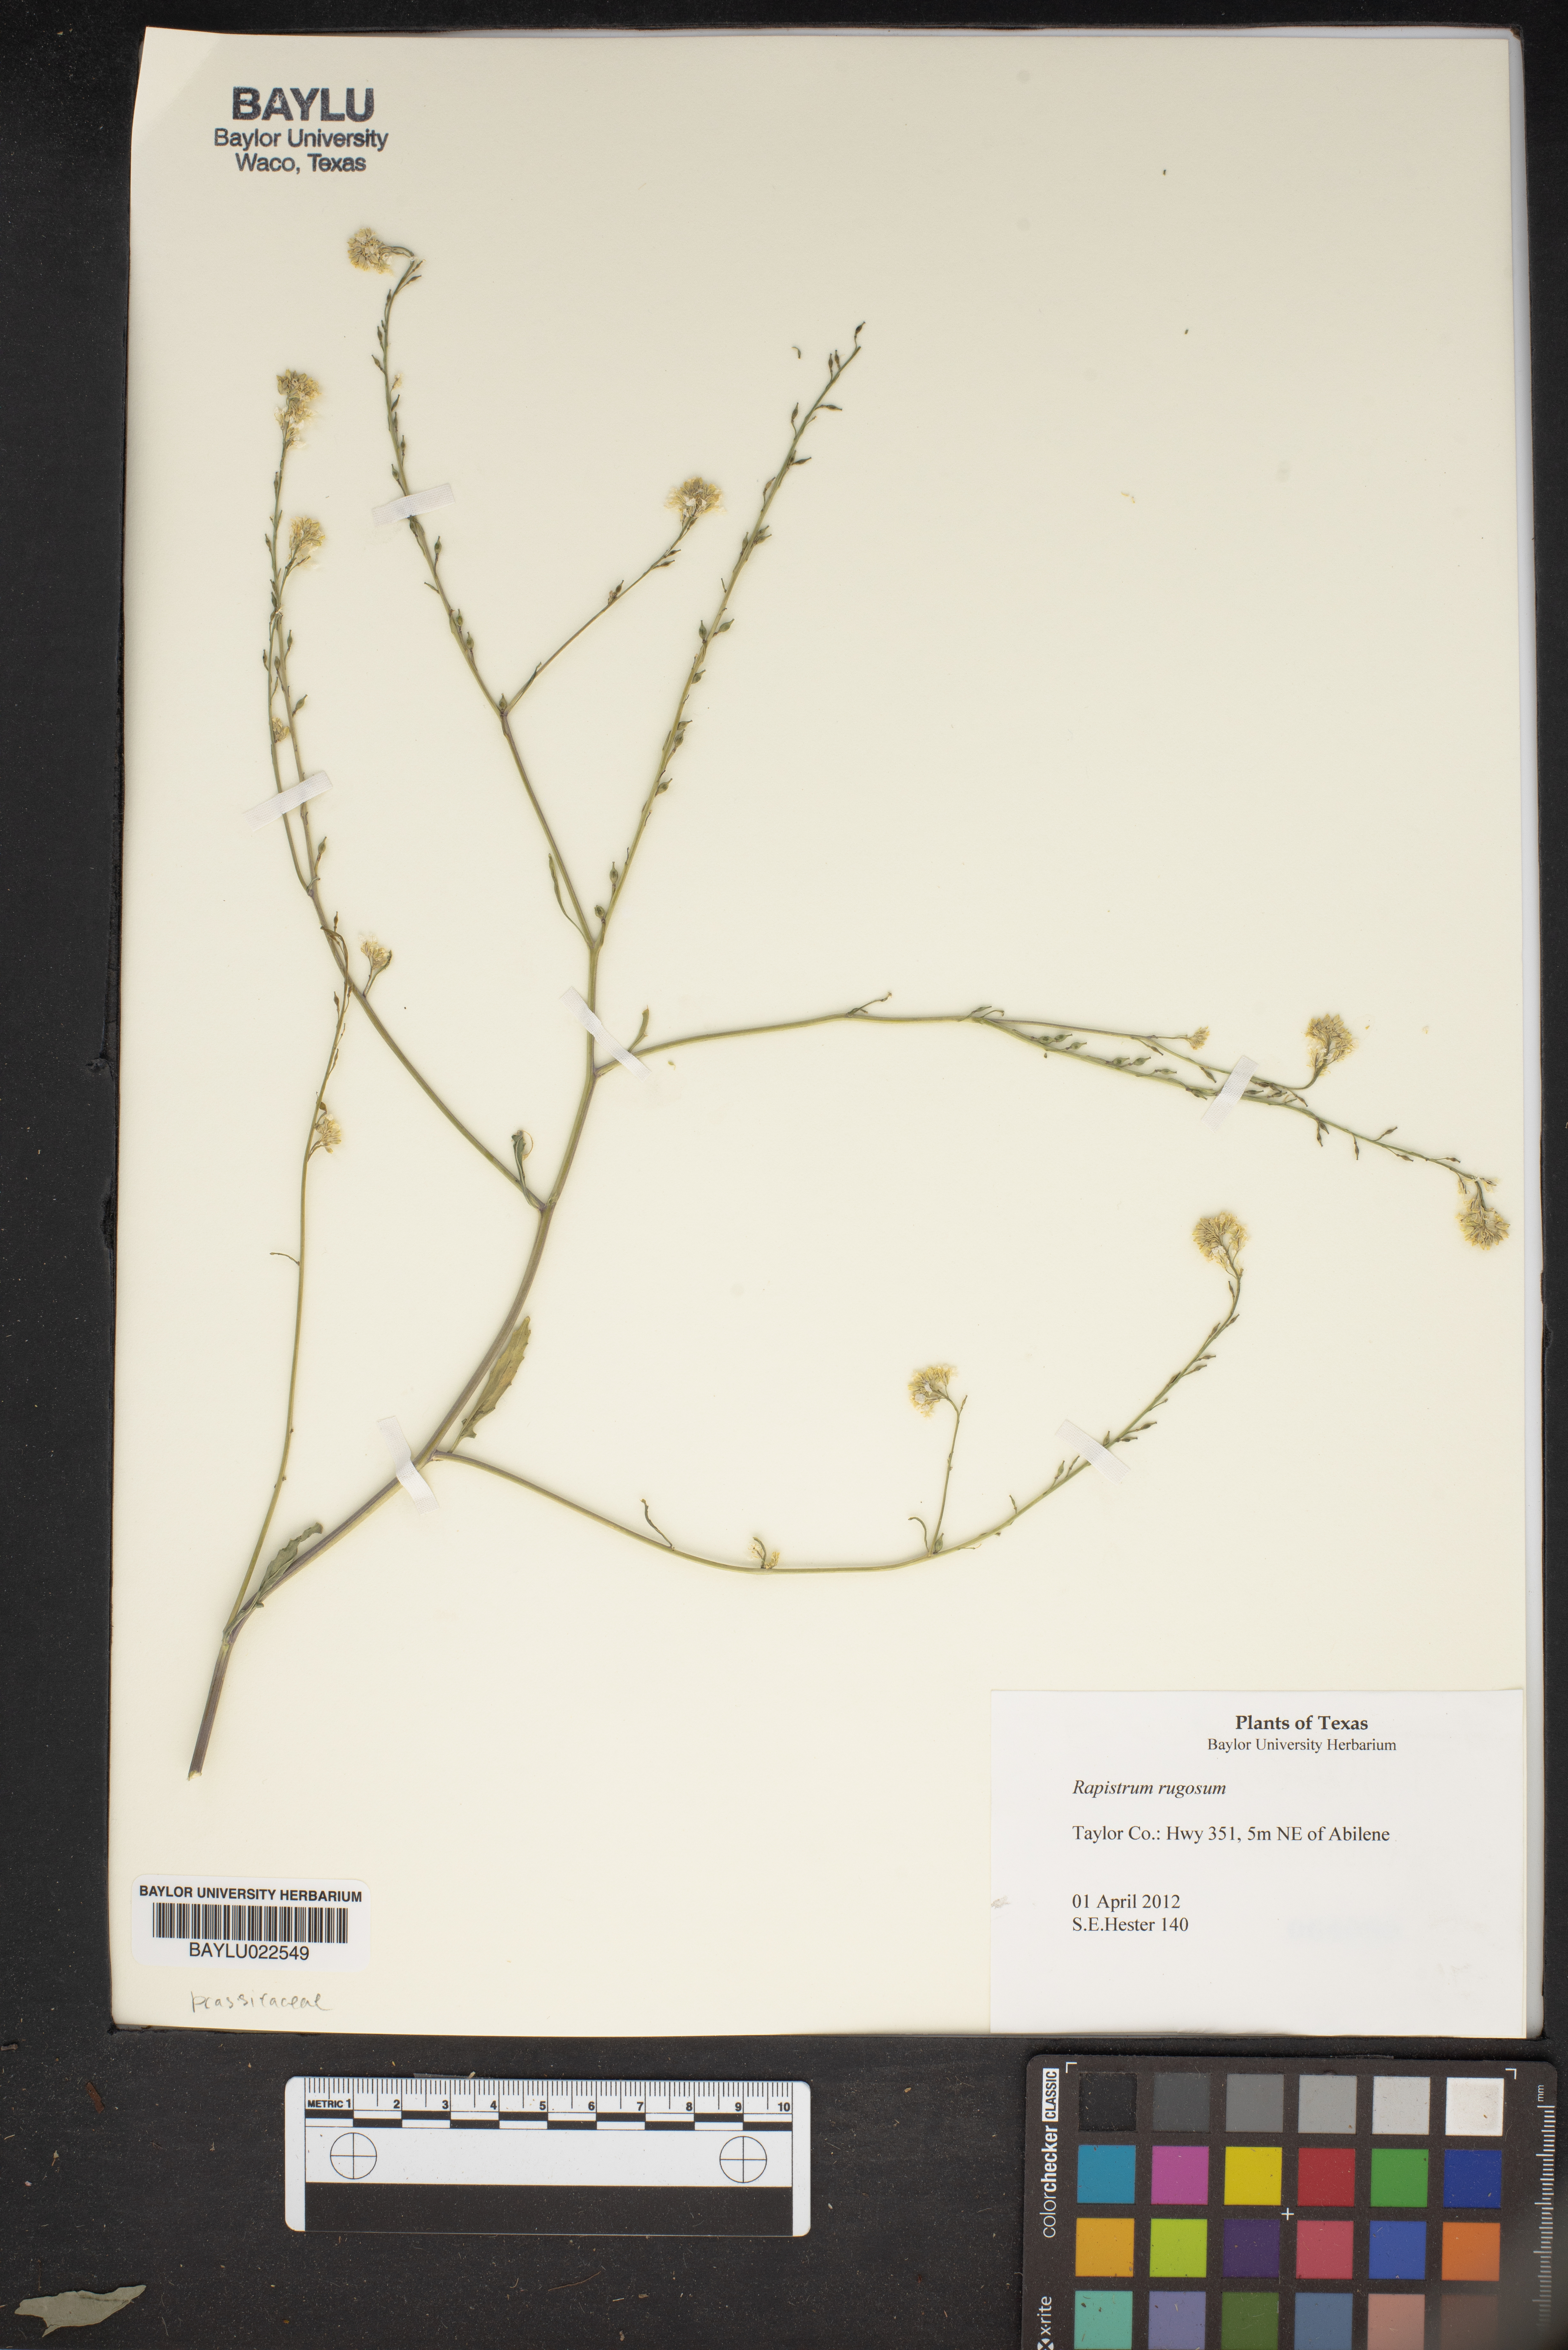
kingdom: Plantae
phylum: Tracheophyta
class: Magnoliopsida
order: Brassicales
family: Brassicaceae
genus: Rapistrum
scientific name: Rapistrum rugosum
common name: Annual bastardcabbage
